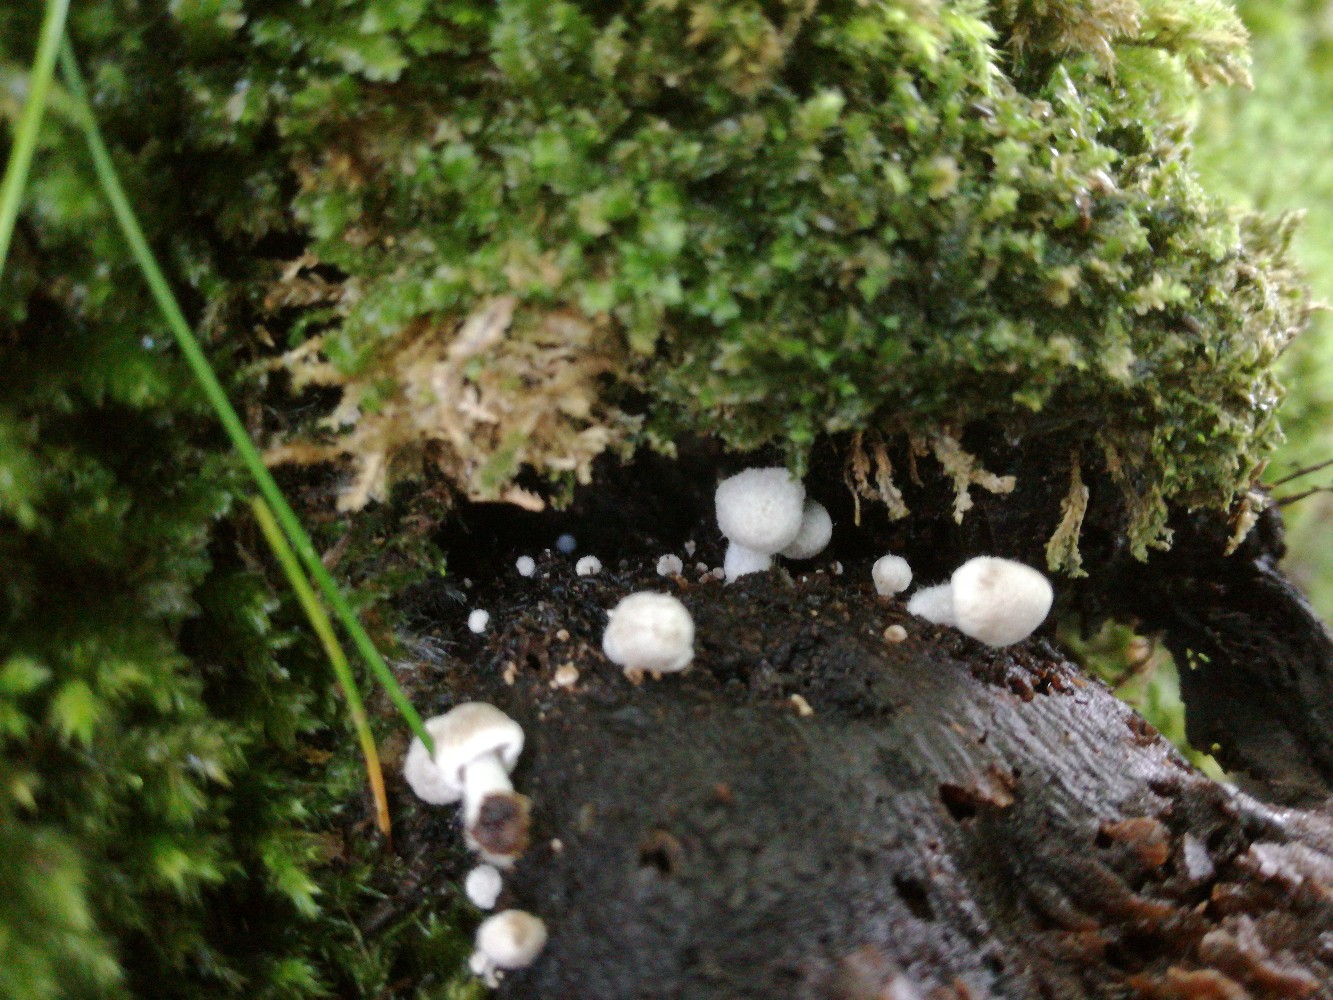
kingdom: Fungi
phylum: Basidiomycota
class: Agaricomycetes
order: Agaricales
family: Lyophyllaceae
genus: Asterophora
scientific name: Asterophora parasitica
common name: grå snyltehat
